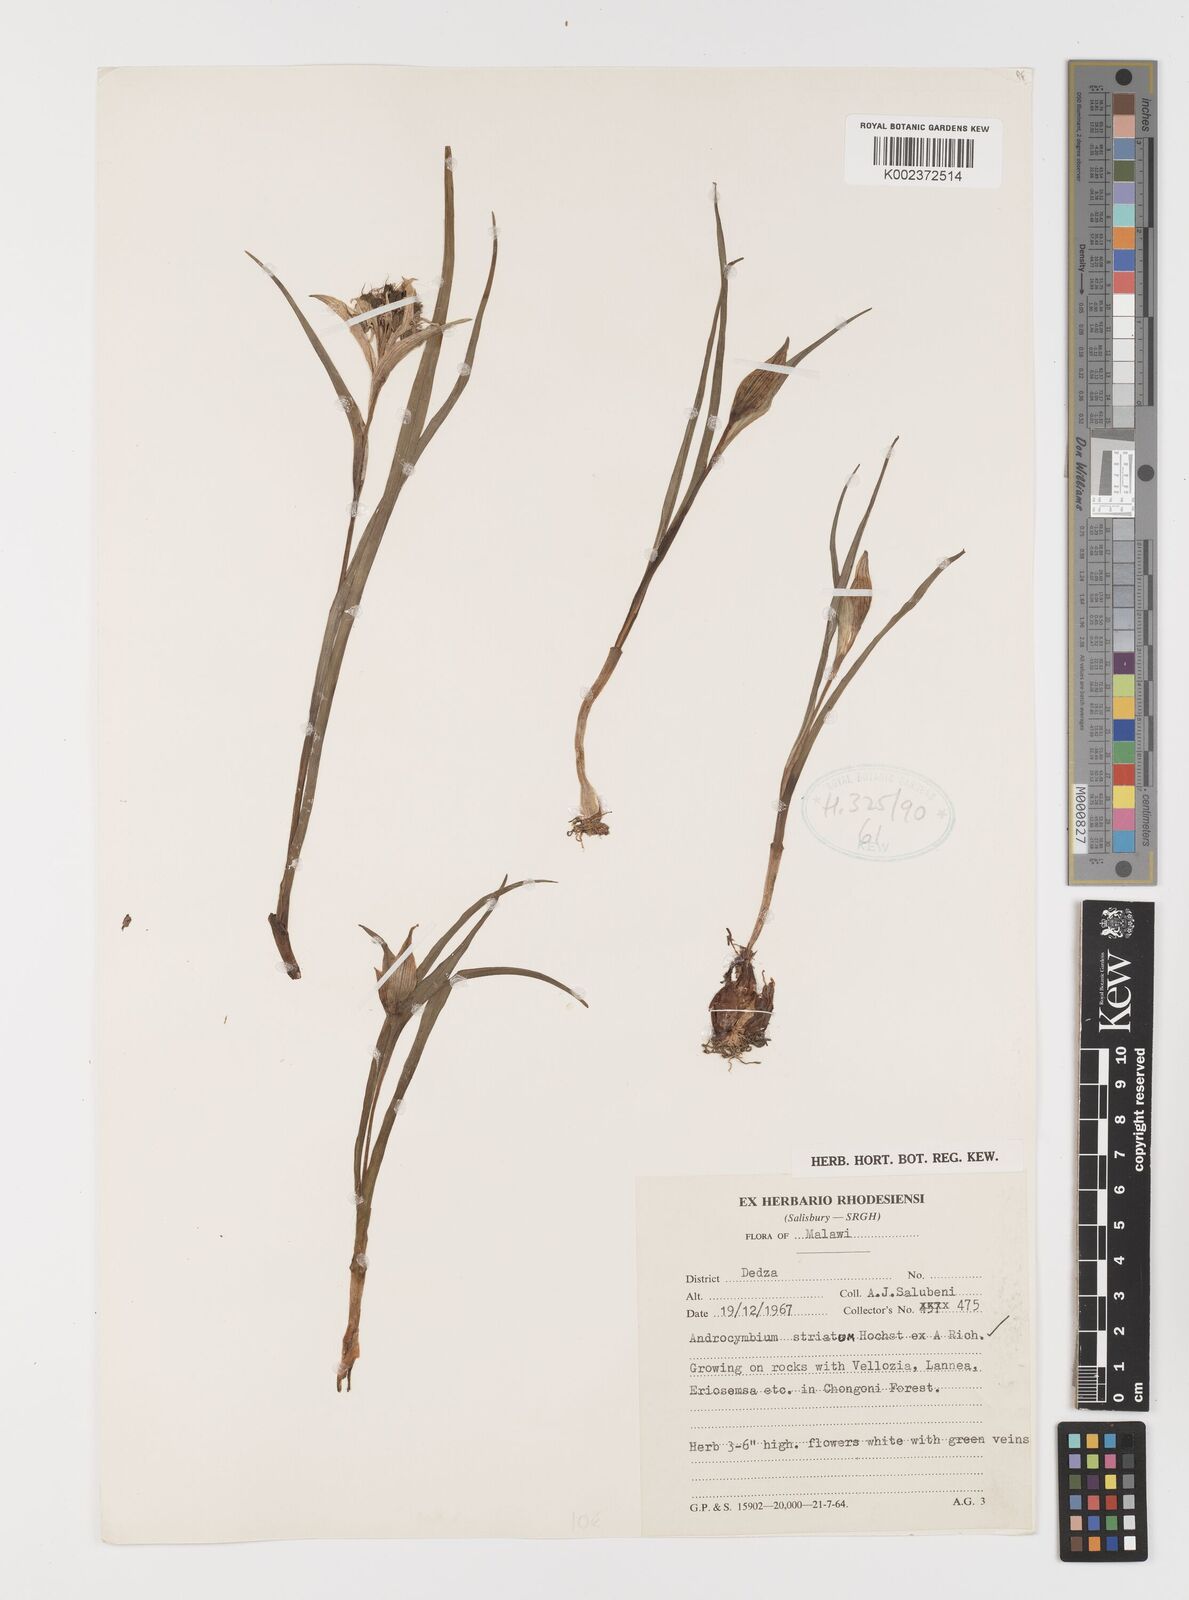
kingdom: Plantae
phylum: Tracheophyta
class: Liliopsida
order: Liliales
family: Colchicaceae
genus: Colchicum
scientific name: Colchicum melanthioides
